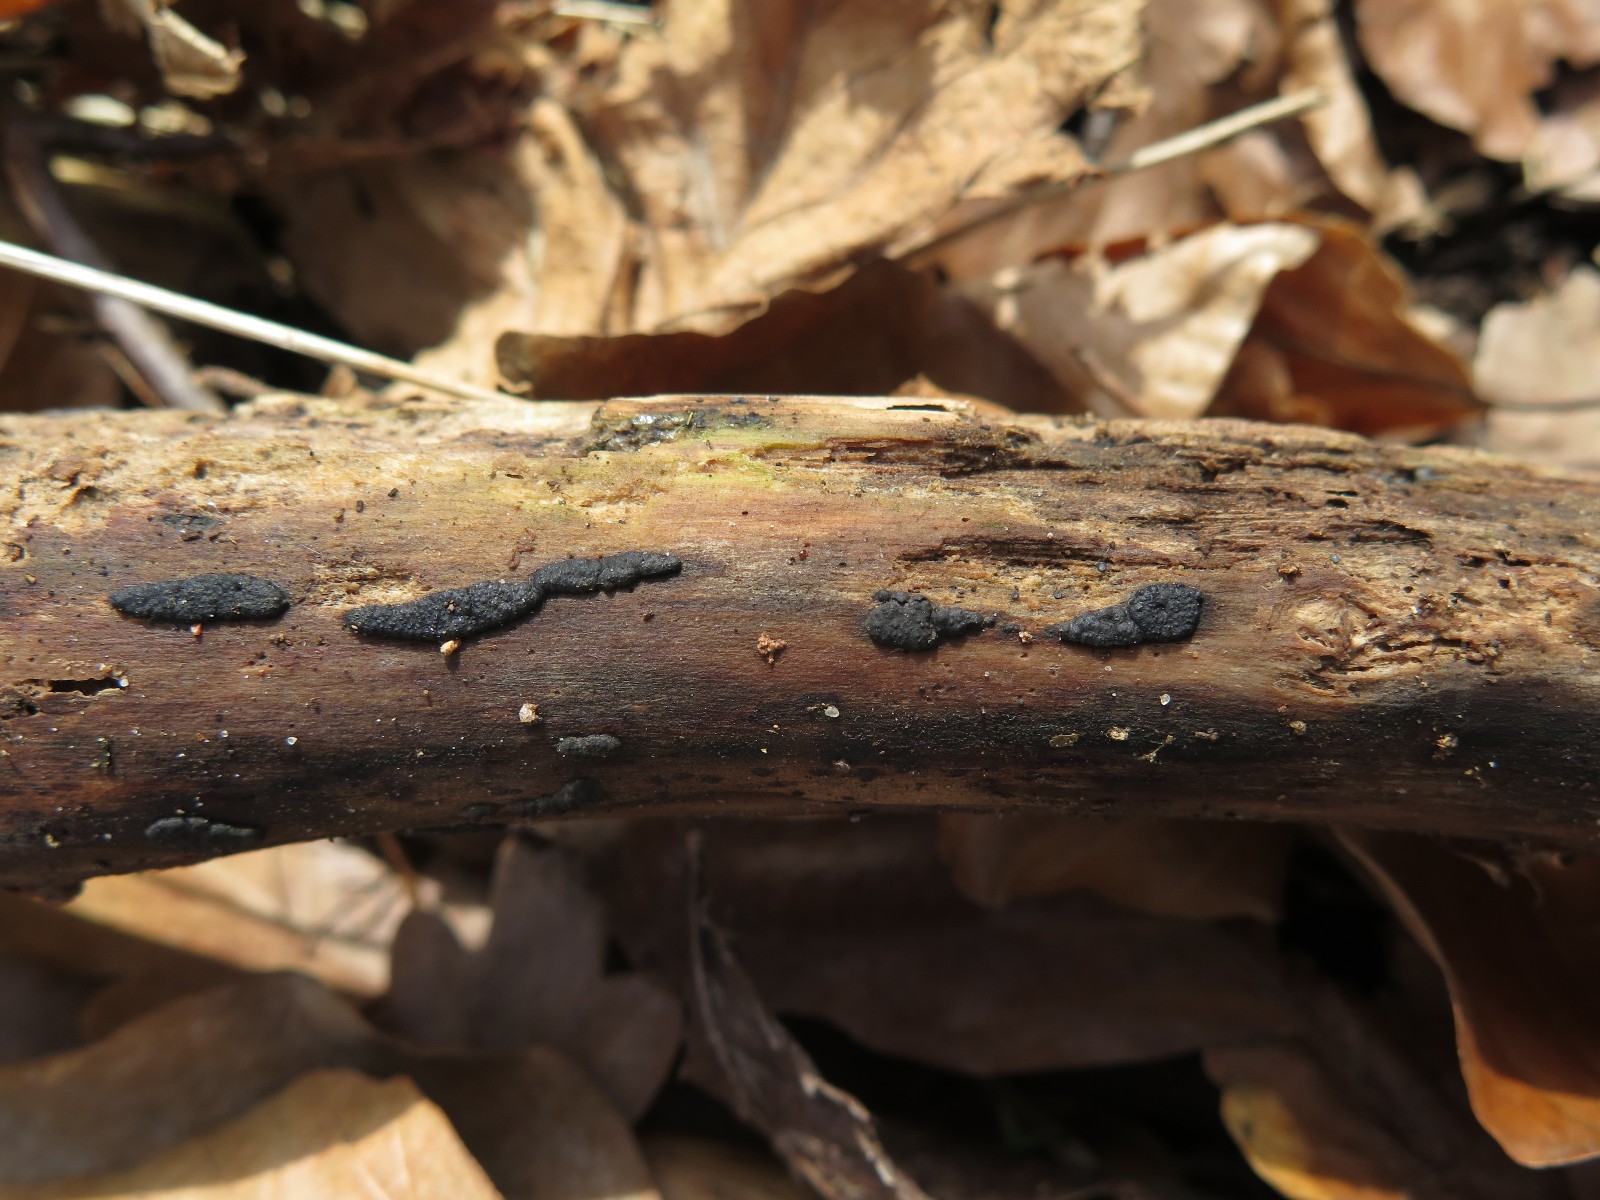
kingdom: Fungi
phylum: Ascomycota
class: Sordariomycetes
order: Xylariales
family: Xylariaceae
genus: Nemania
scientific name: Nemania serpens
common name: almindelig kuldyne
